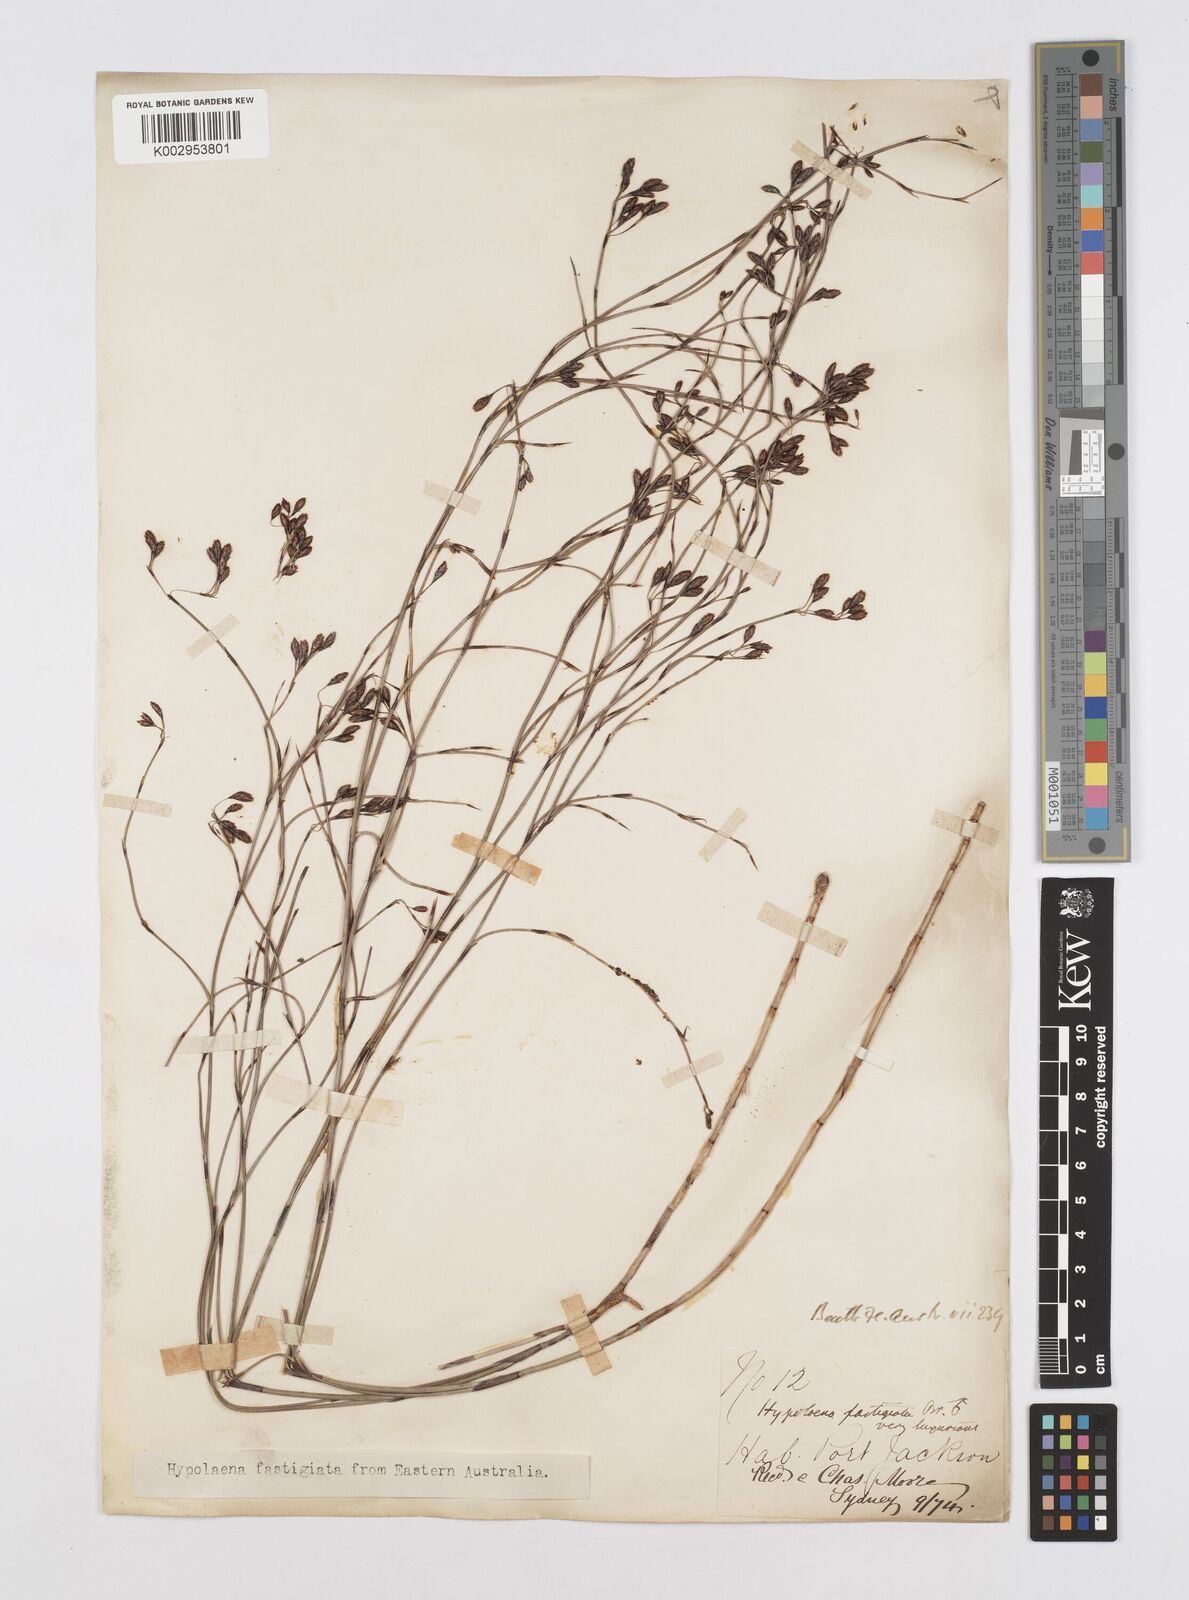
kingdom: Plantae
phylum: Tracheophyta
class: Liliopsida
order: Poales
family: Restionaceae
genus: Hypolaena
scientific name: Hypolaena fastigiata
